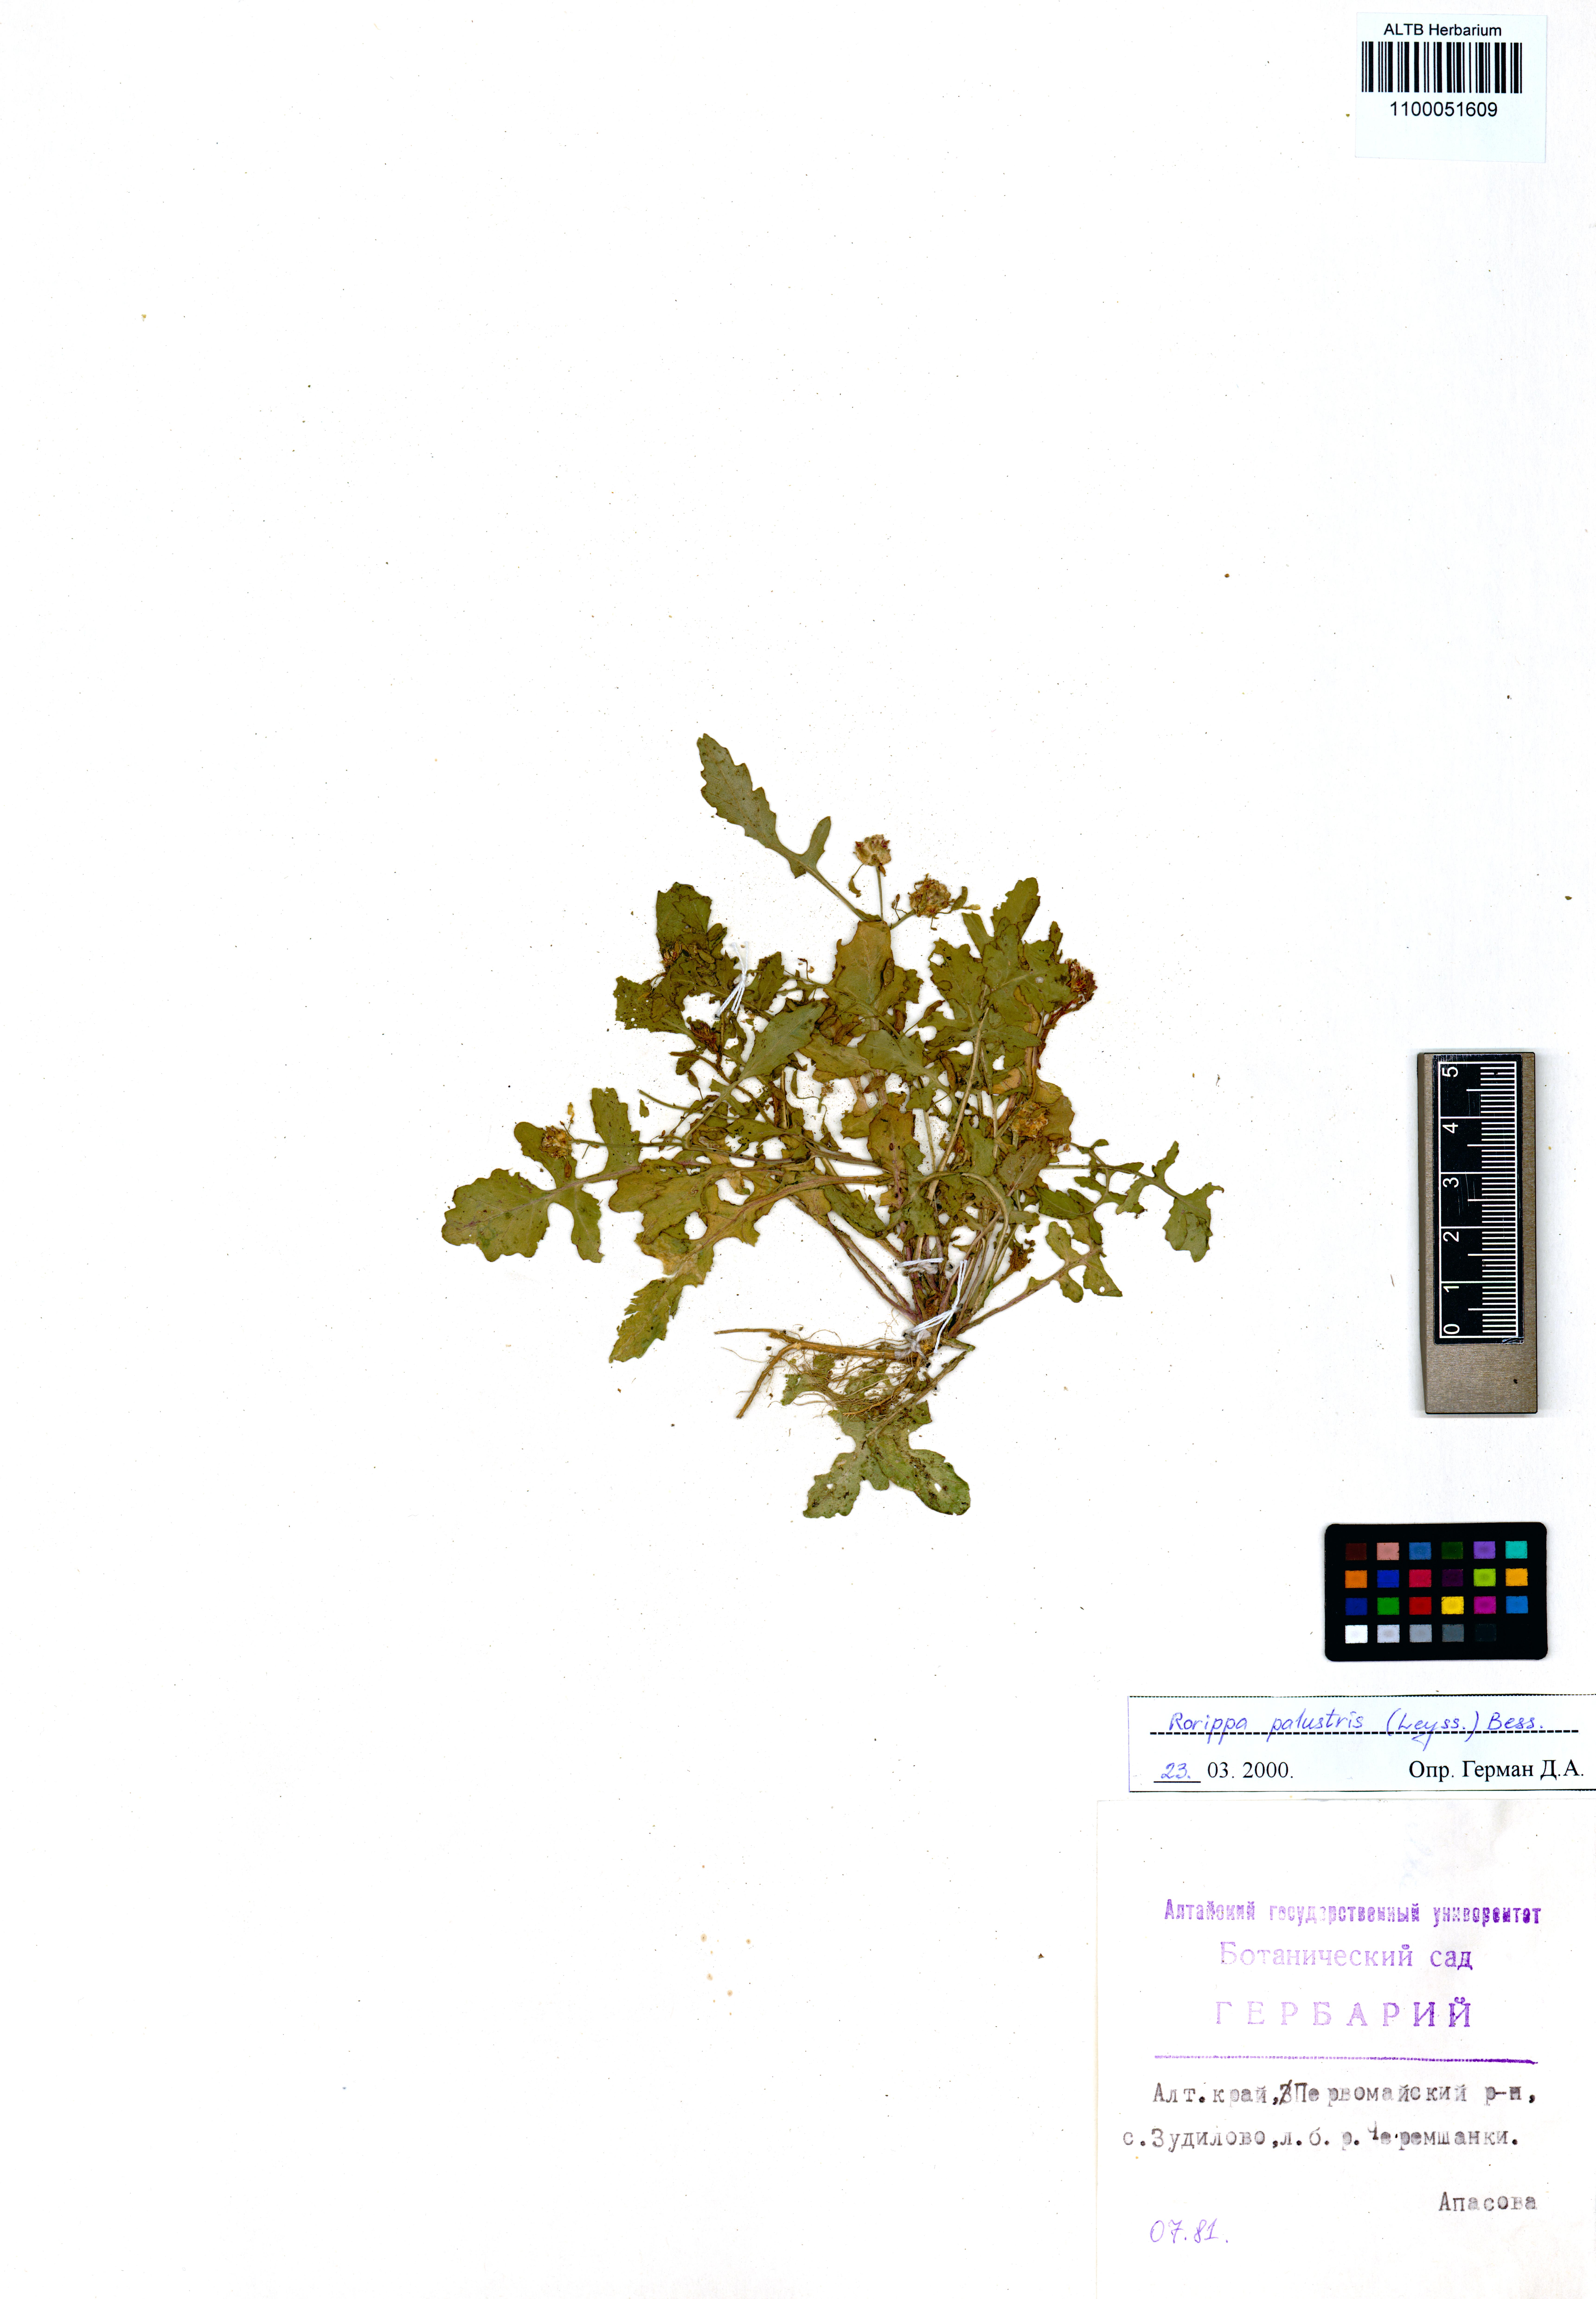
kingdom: Plantae
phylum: Tracheophyta
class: Magnoliopsida
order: Brassicales
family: Brassicaceae
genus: Rorippa
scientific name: Rorippa palustris
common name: Marsh yellow-cress
